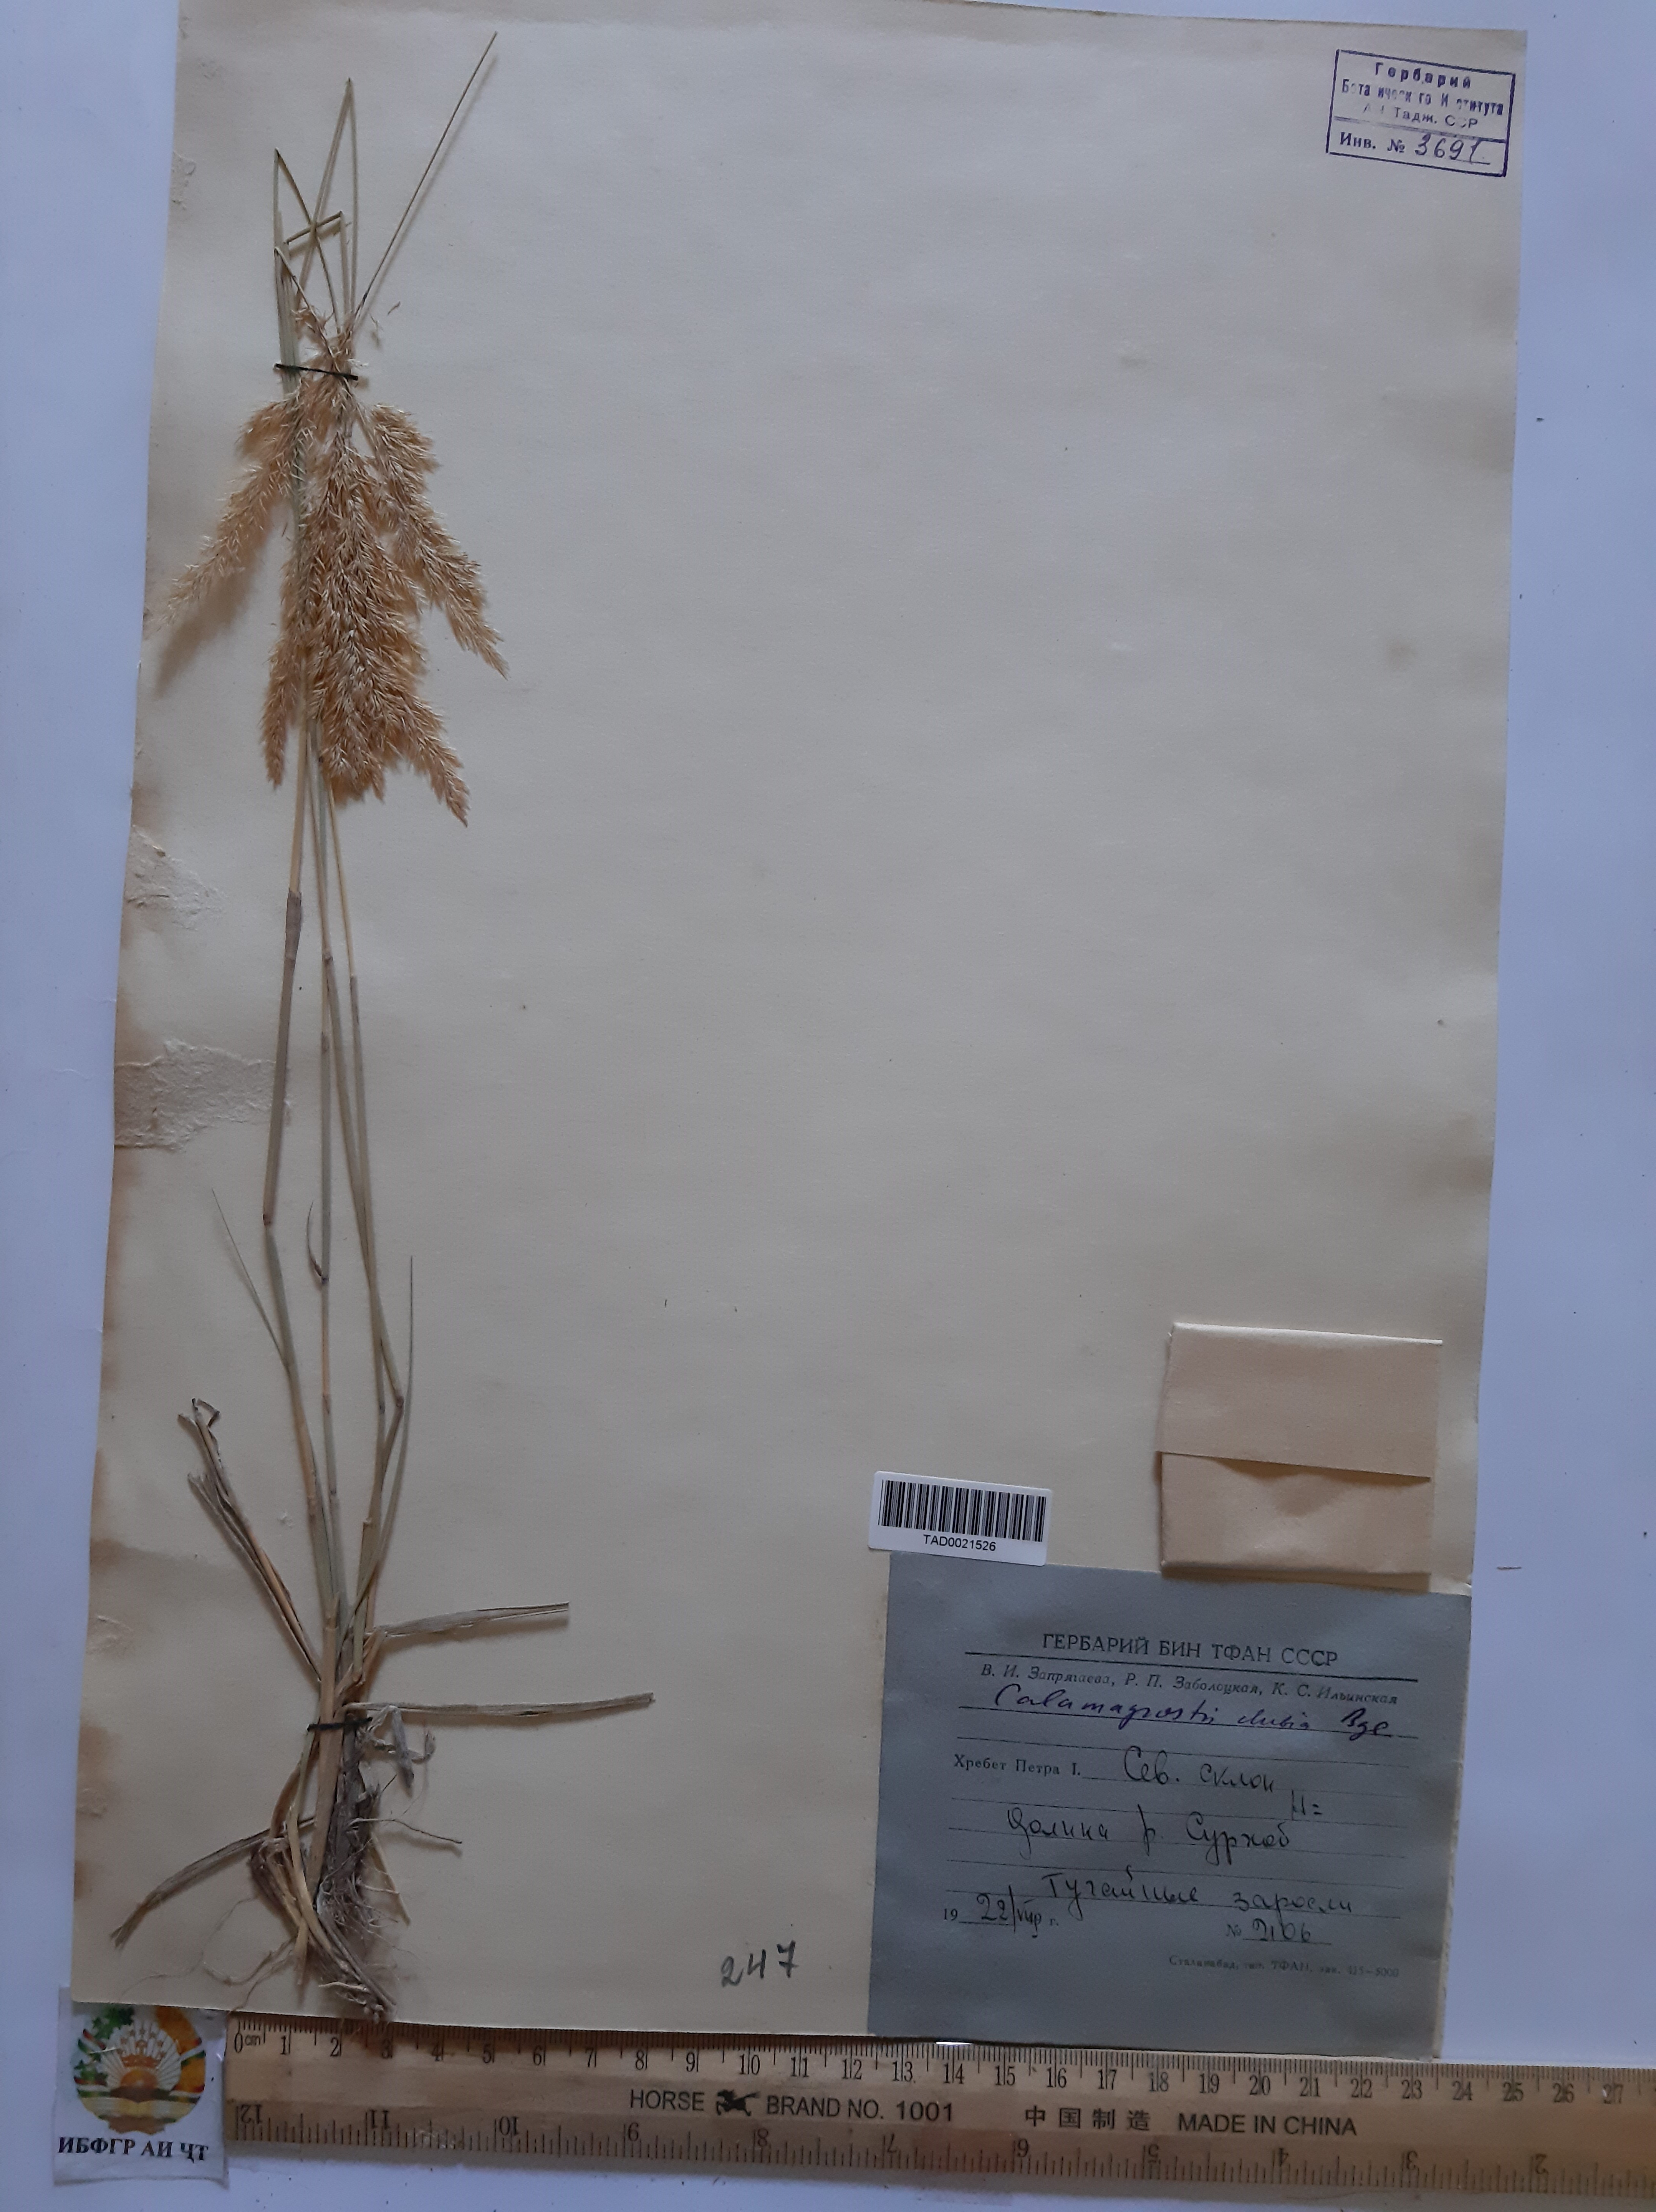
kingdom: Plantae
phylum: Tracheophyta
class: Liliopsida
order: Poales
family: Poaceae
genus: Calamagrostis
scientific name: Calamagrostis pseudophragmites
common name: Coastal small-reed
